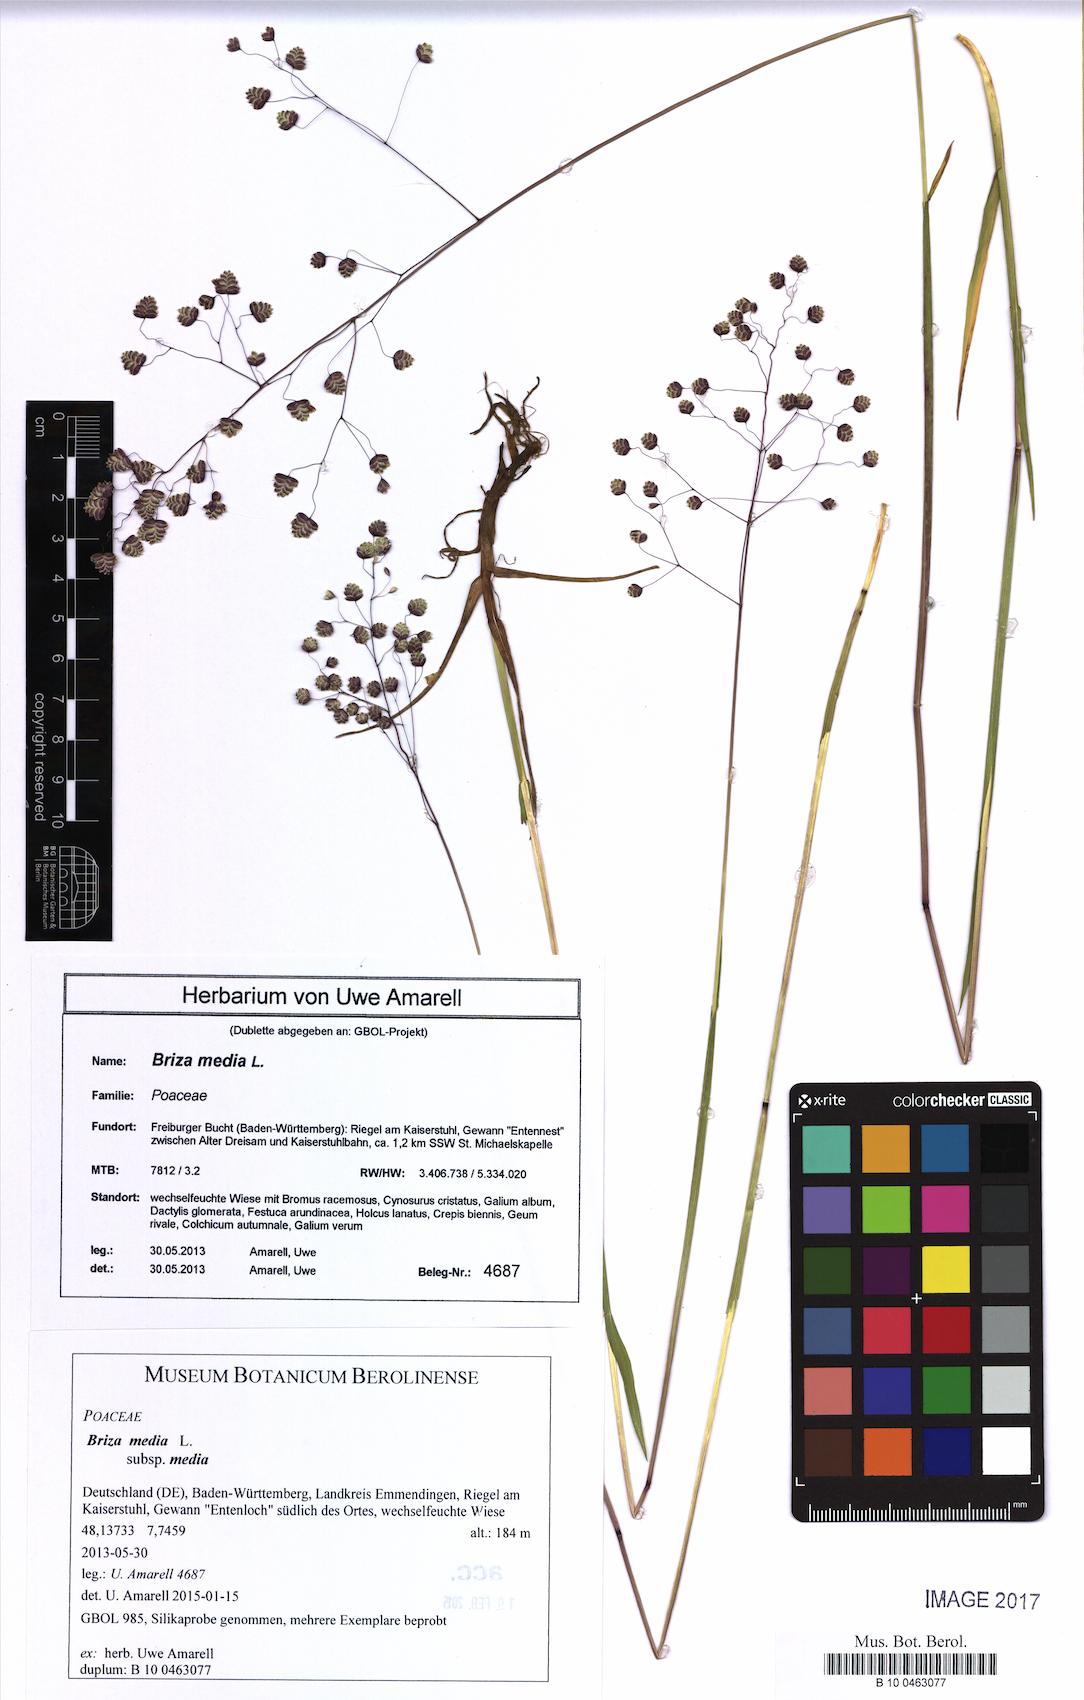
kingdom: Plantae
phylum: Tracheophyta
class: Liliopsida
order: Poales
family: Poaceae
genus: Briza
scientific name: Briza media
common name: Quaking grass
